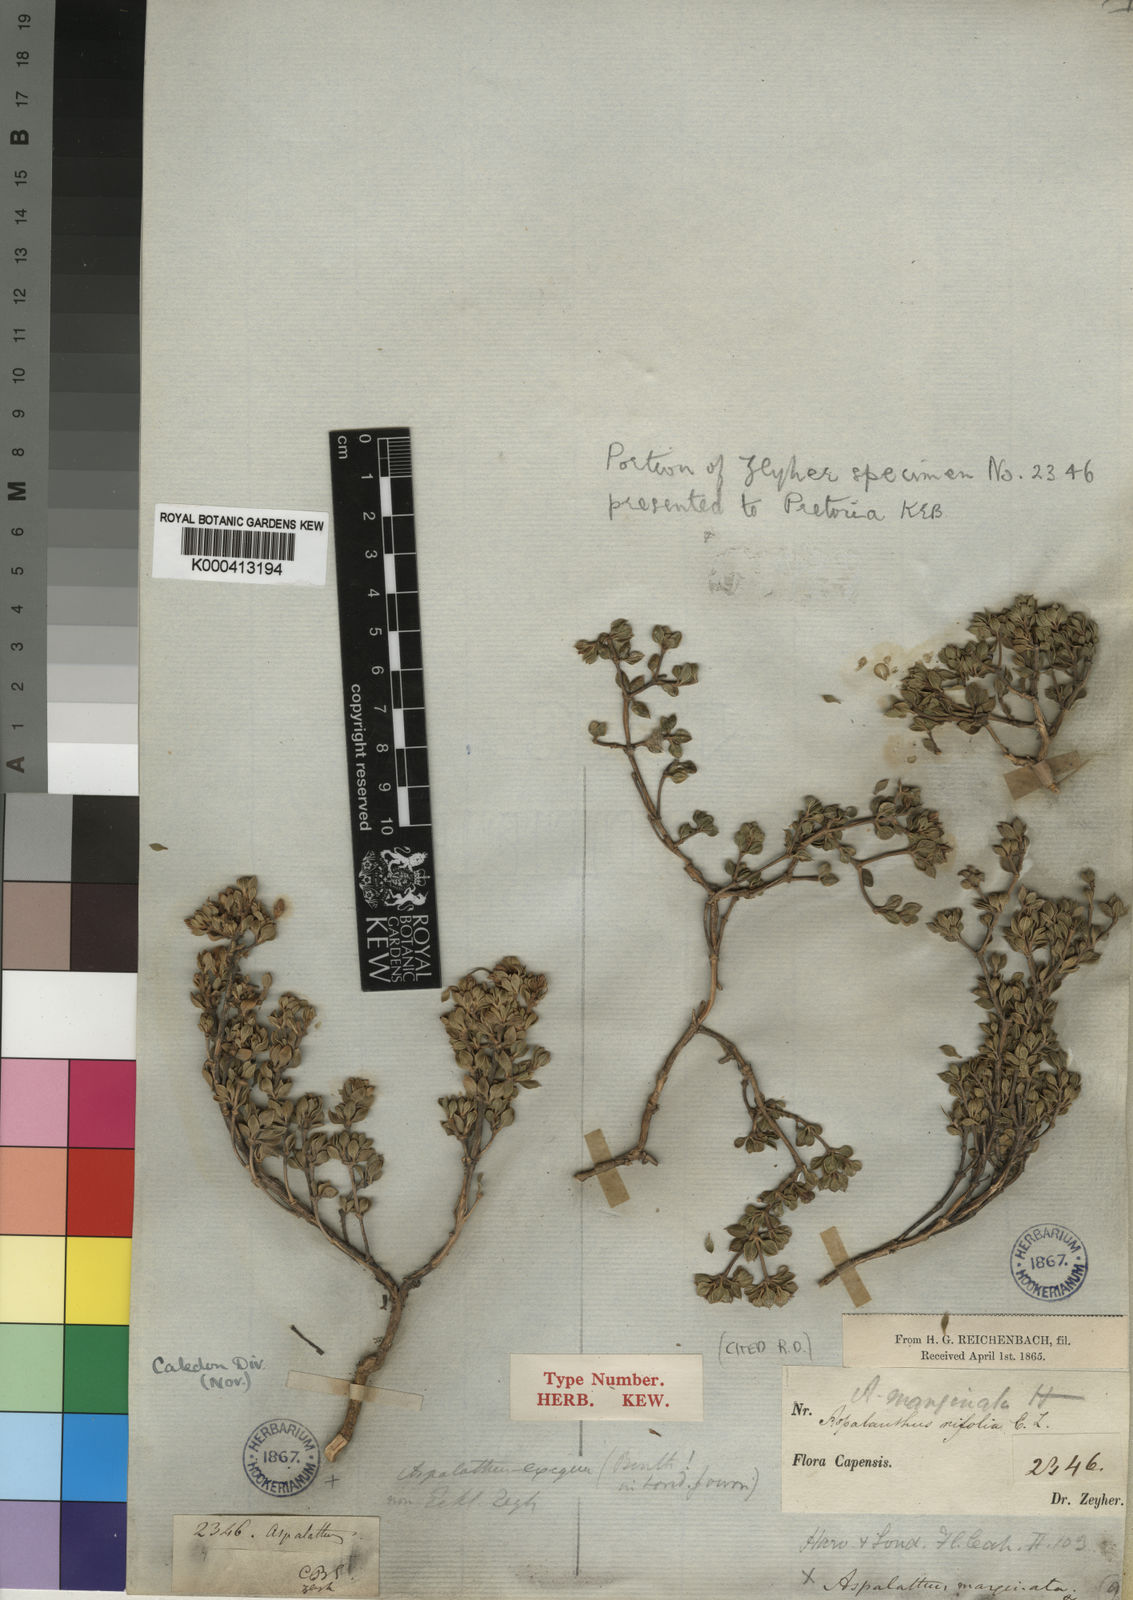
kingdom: Plantae
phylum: Tracheophyta
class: Magnoliopsida
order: Fabales
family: Fabaceae
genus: Aspalathus
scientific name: Aspalathus marginata
